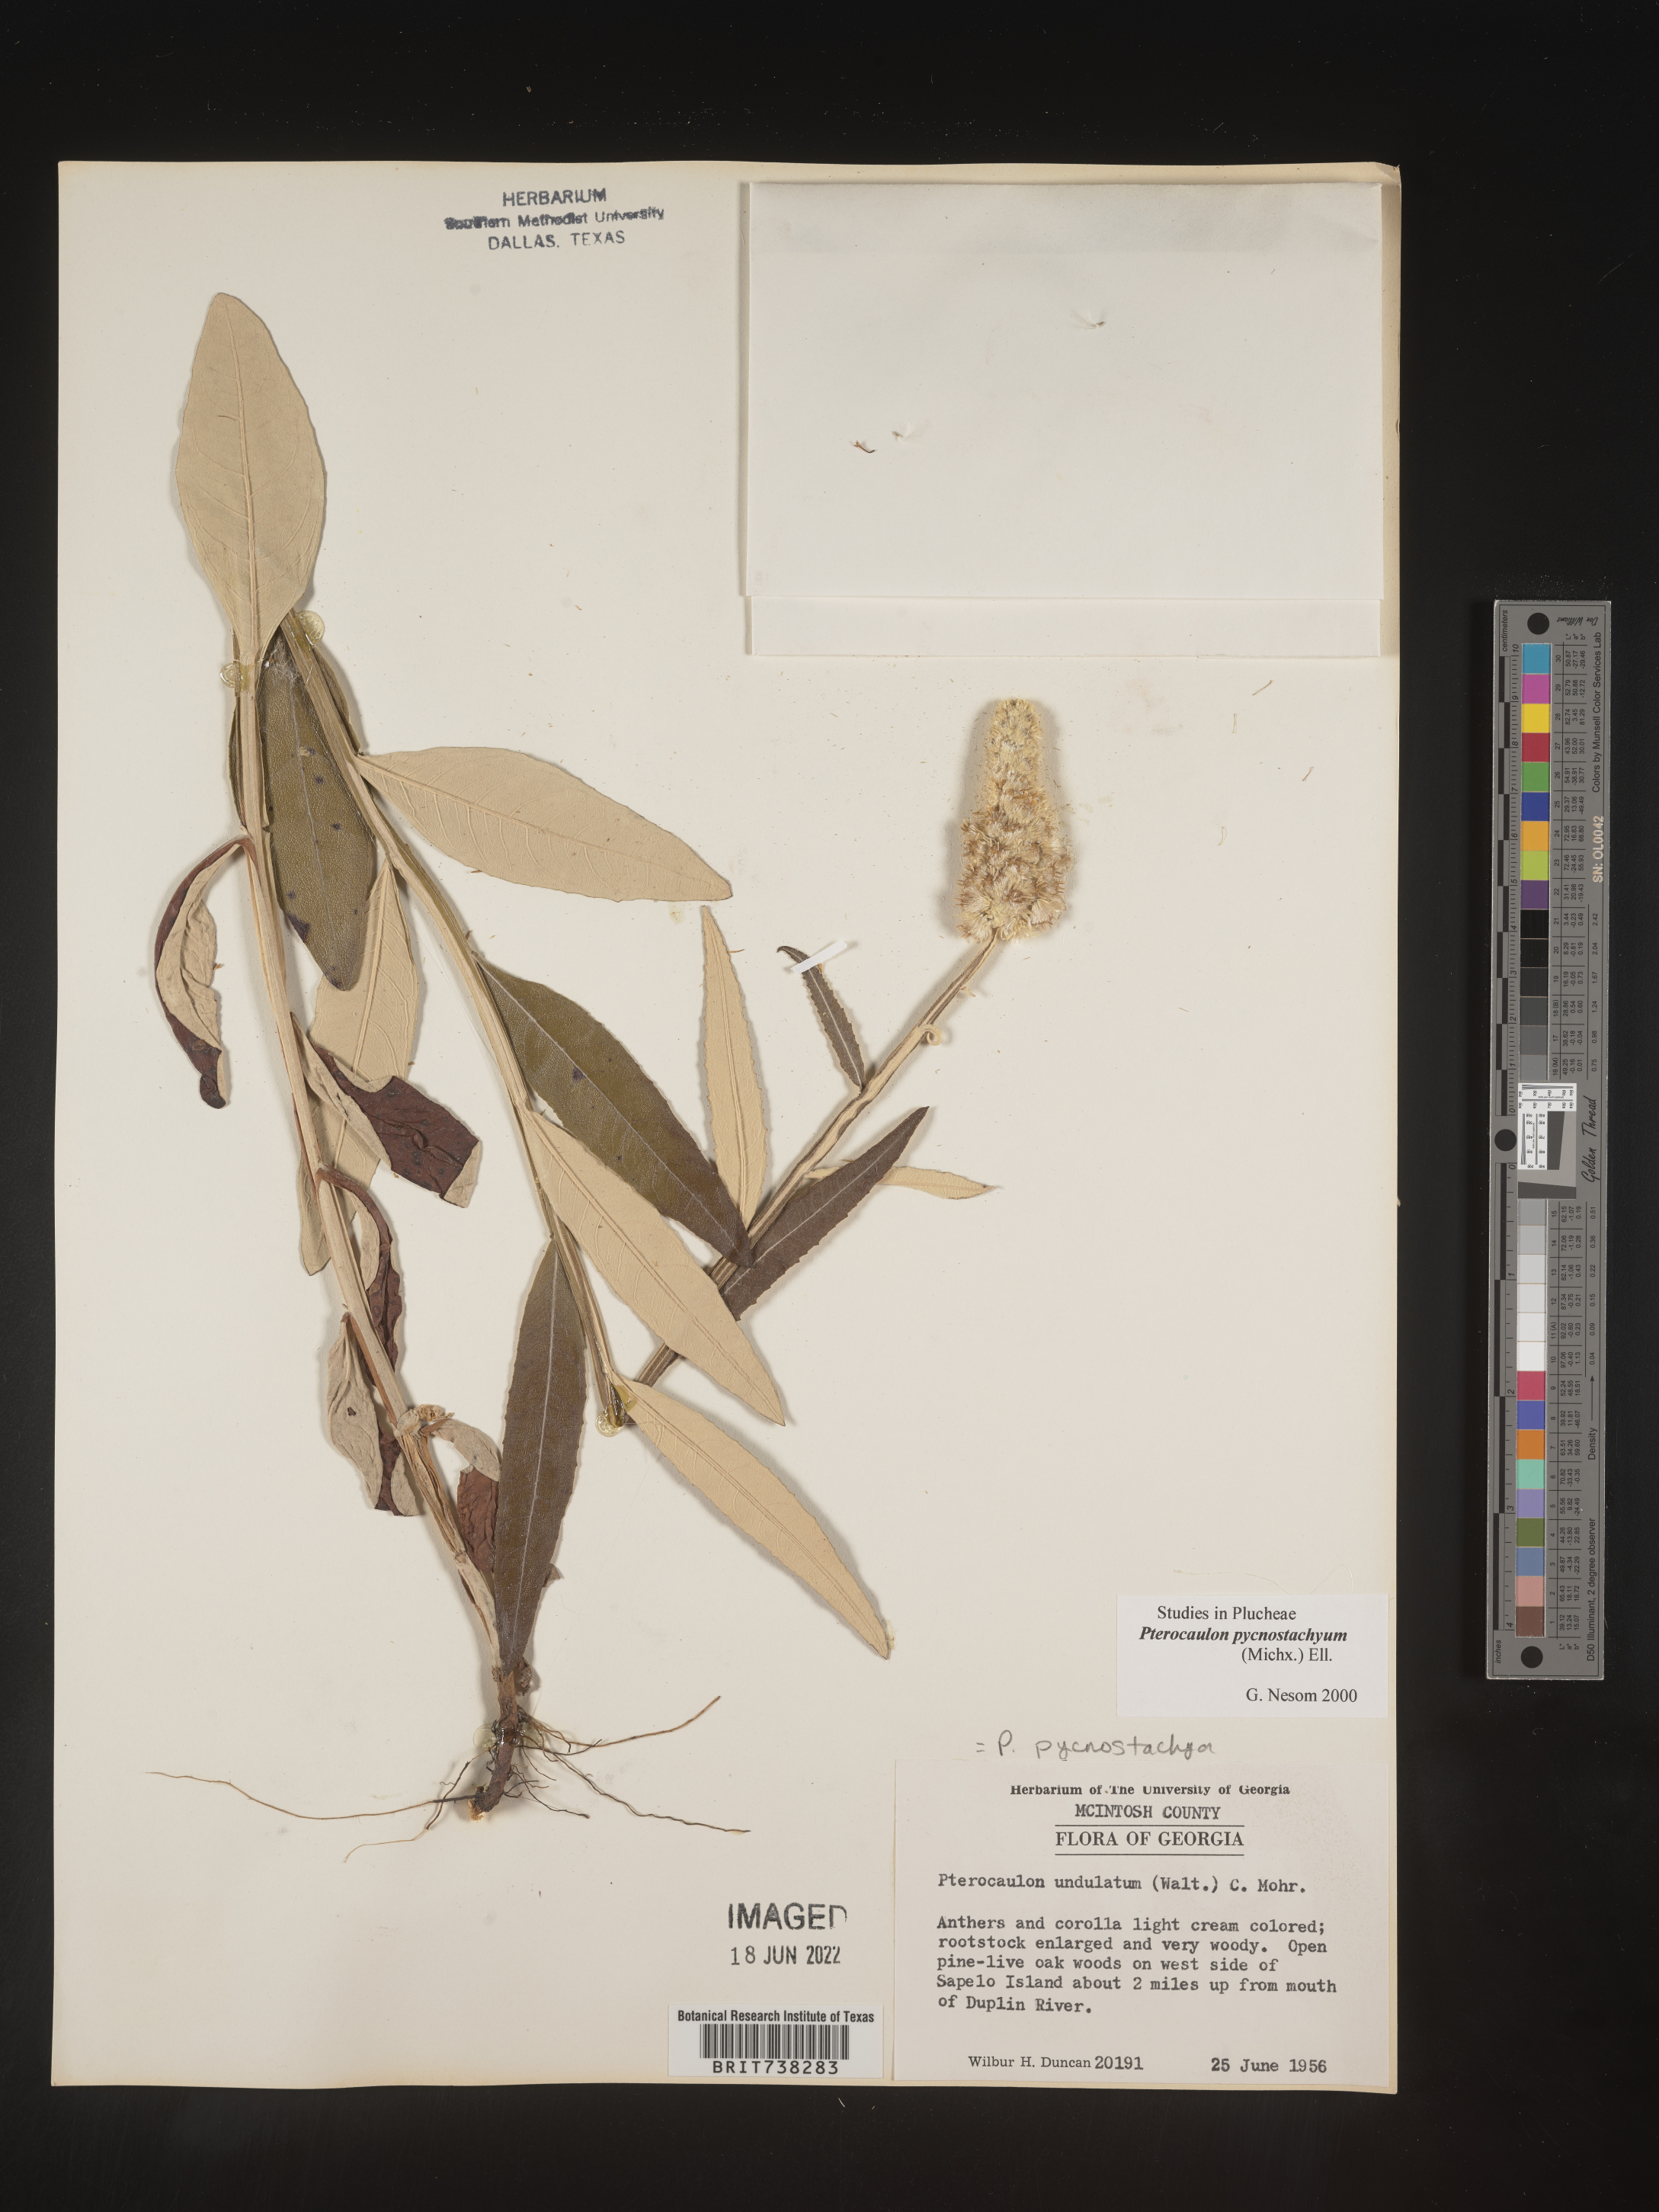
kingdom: Plantae
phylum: Tracheophyta
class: Magnoliopsida
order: Asterales
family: Asteraceae
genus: Pterocaulon
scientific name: Pterocaulon pycnostachyum
